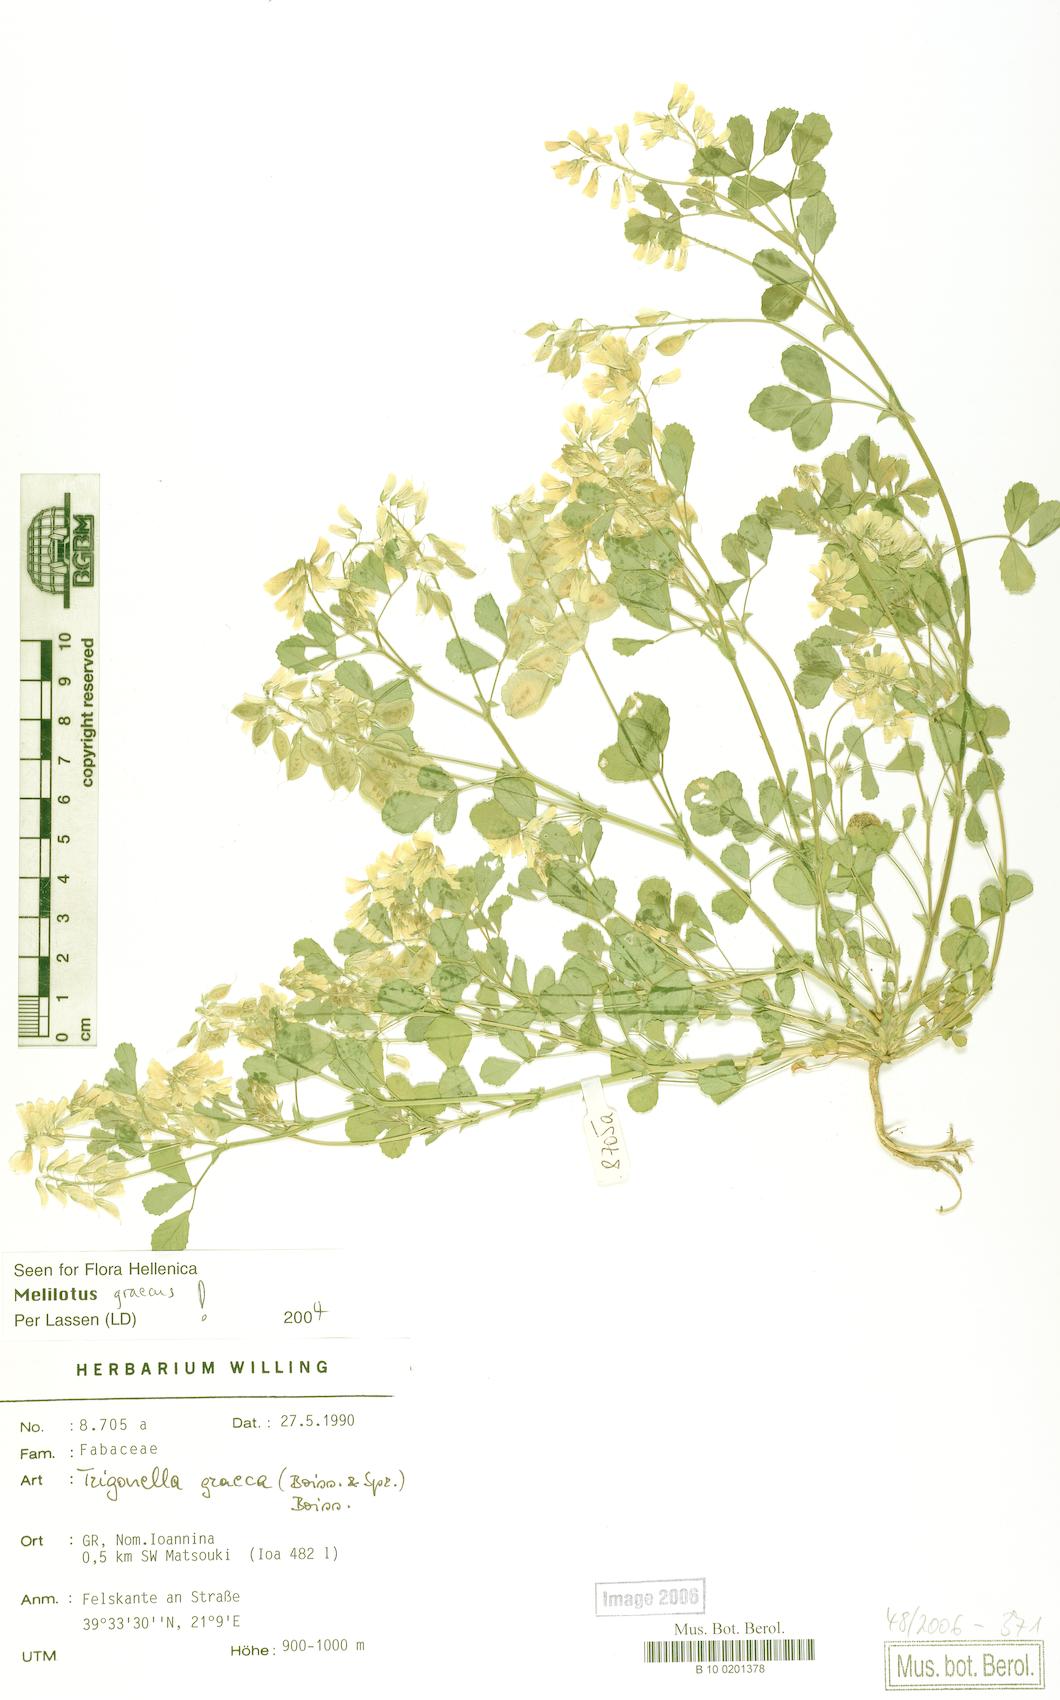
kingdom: Plantae
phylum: Tracheophyta
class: Magnoliopsida
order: Fabales
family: Fabaceae
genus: Trigonella
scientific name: Trigonella graeca
